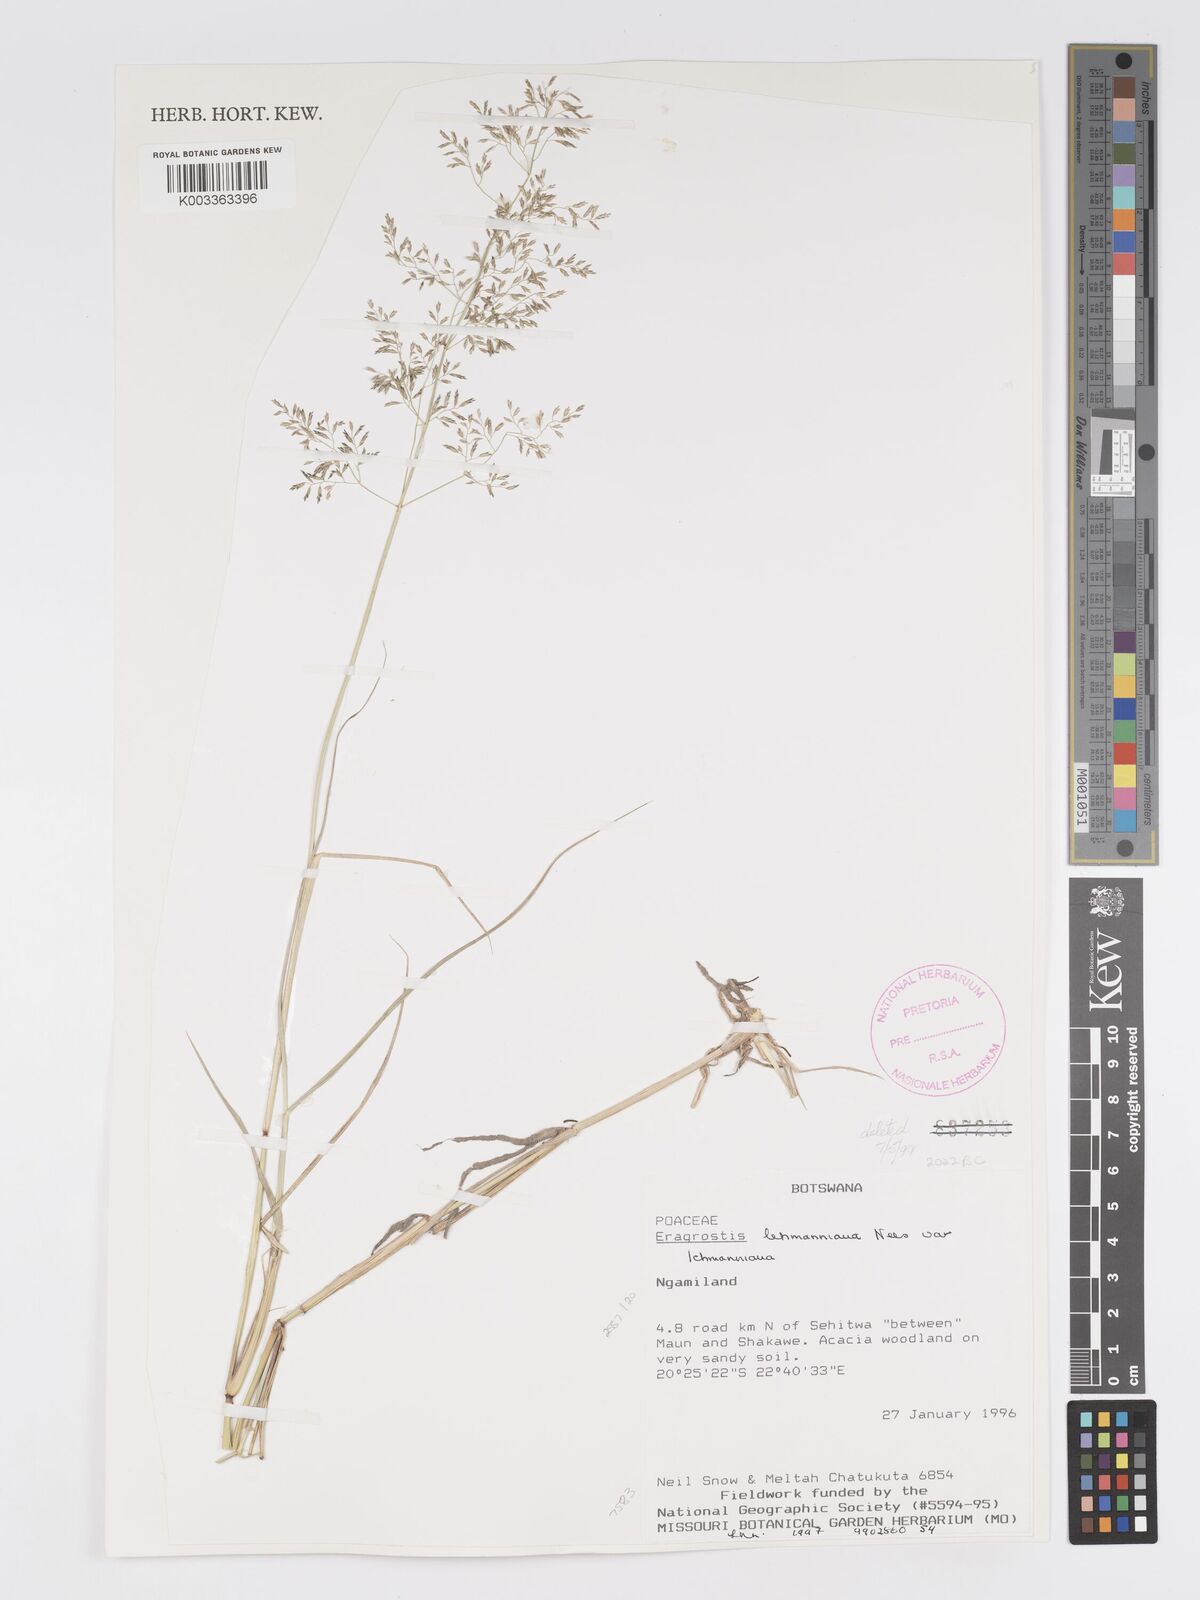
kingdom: Plantae
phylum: Tracheophyta
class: Liliopsida
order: Poales
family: Poaceae
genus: Eragrostis
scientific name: Eragrostis lehmanniana
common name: Lehmann lovegrass
